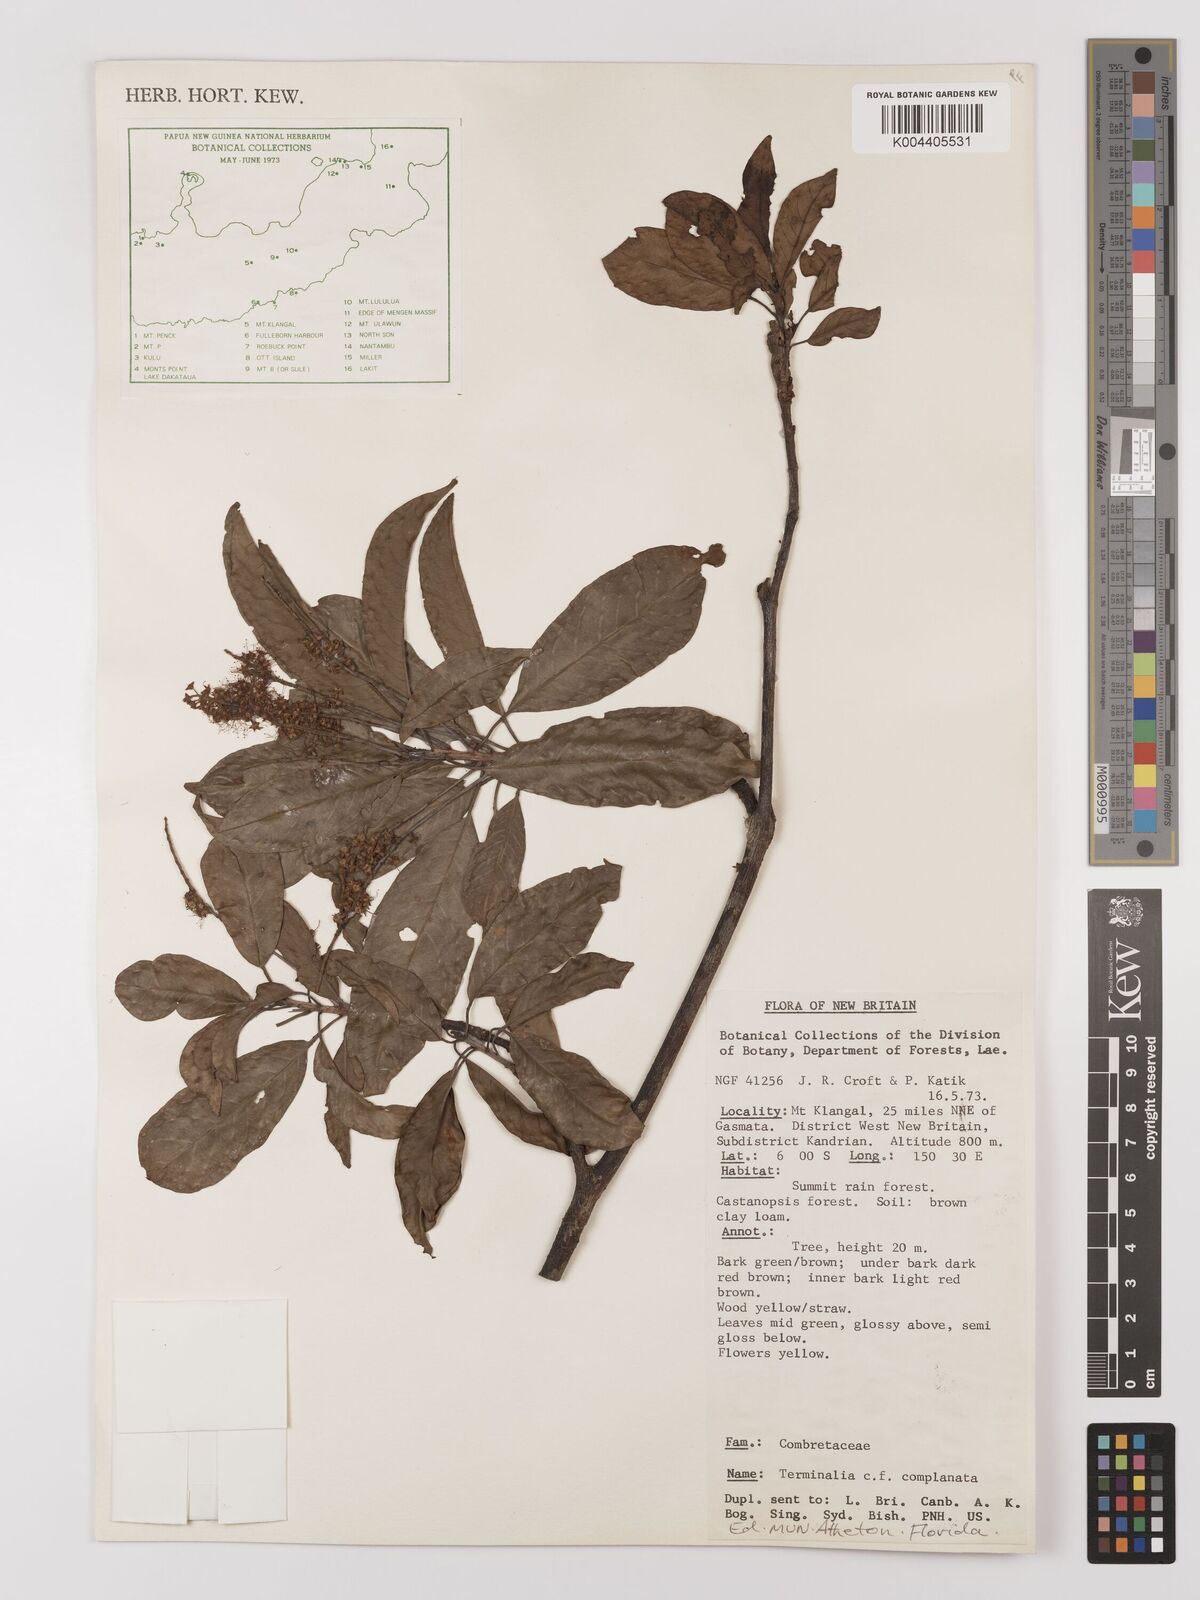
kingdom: Plantae
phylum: Tracheophyta
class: Magnoliopsida
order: Myrtales
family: Combretaceae
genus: Terminalia
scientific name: Terminalia
